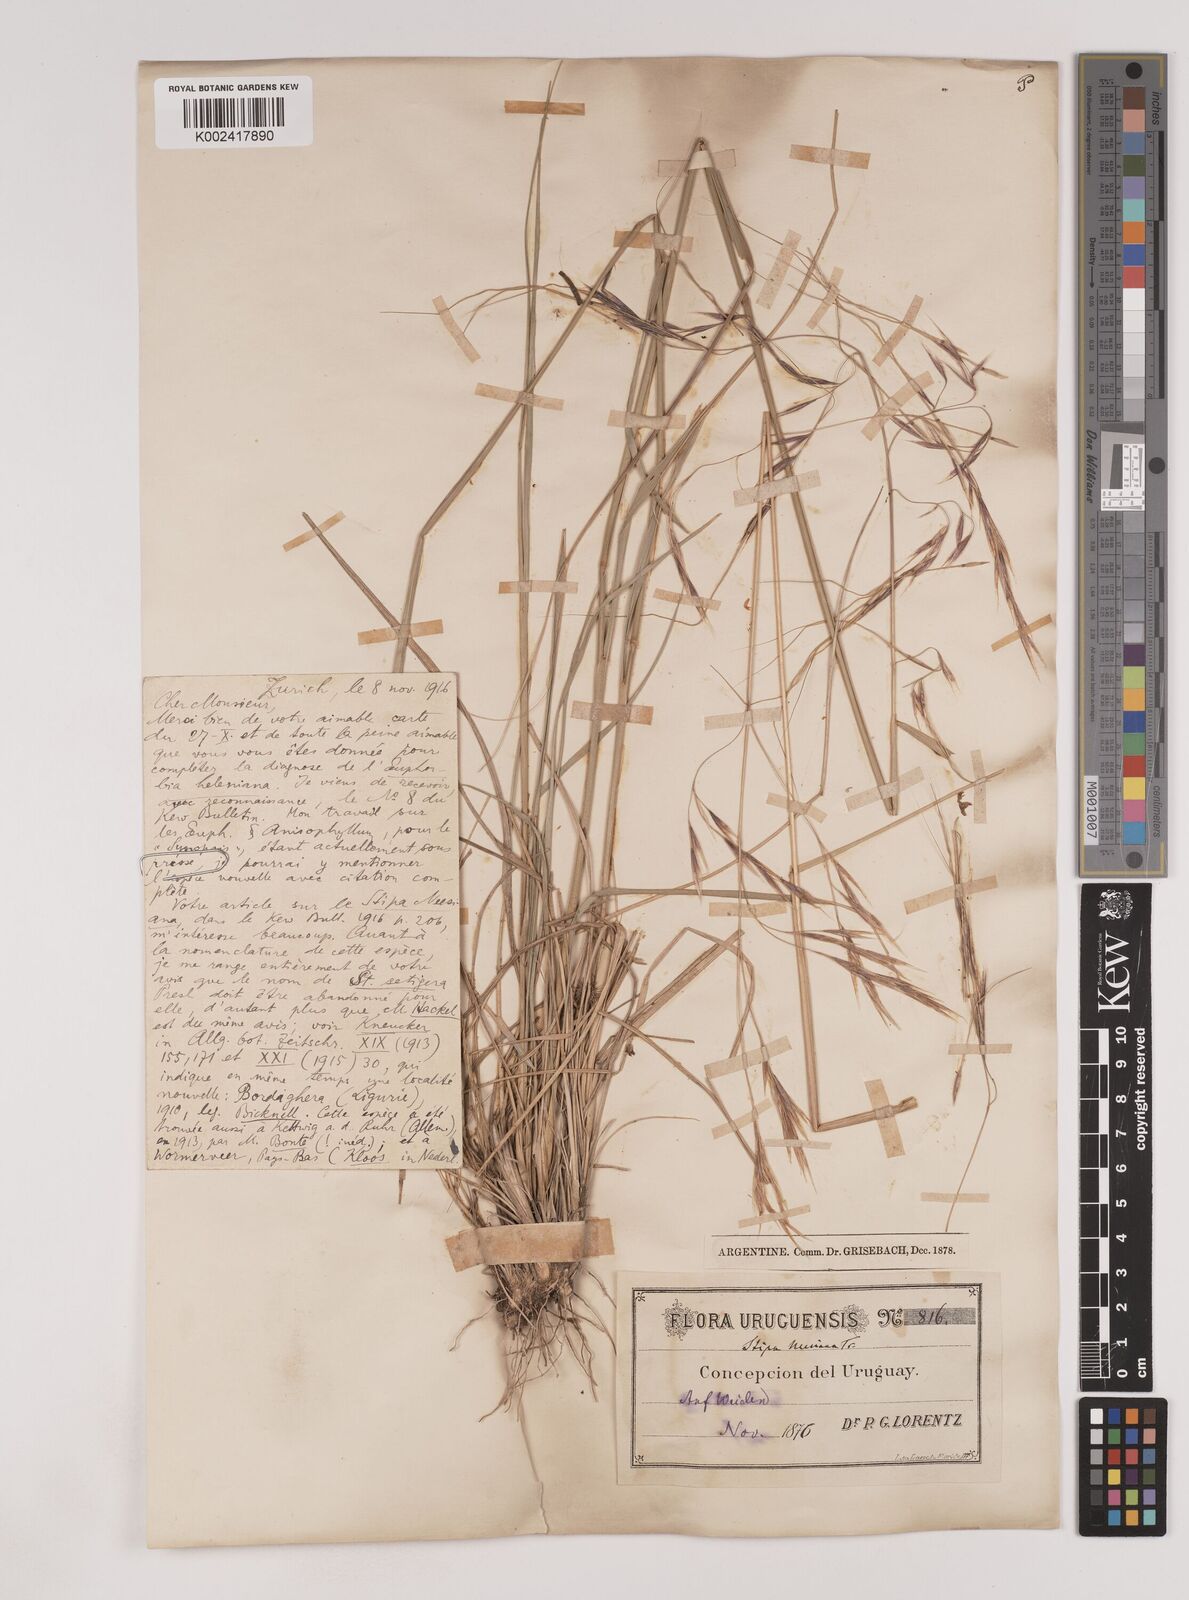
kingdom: Plantae
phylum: Tracheophyta
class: Liliopsida
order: Poales
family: Poaceae
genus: Nassella
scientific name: Nassella neesiana
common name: American needle-grass
